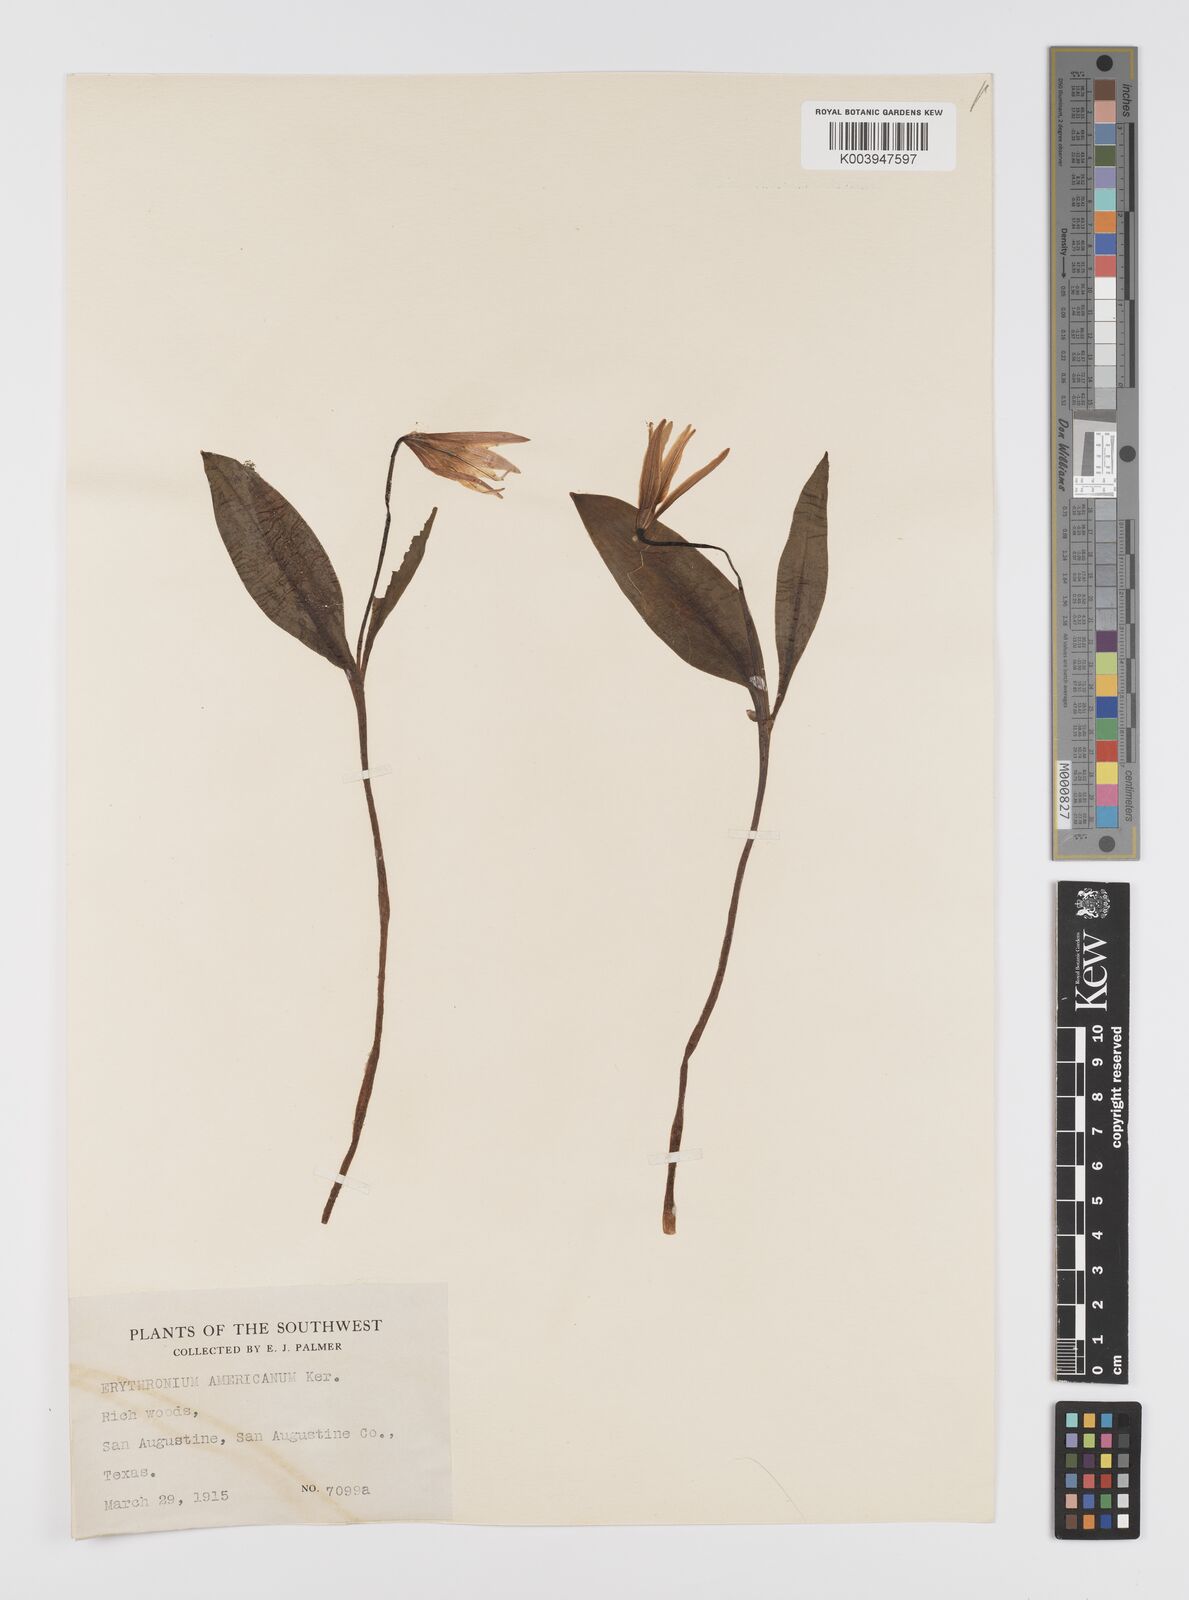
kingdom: Plantae
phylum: Tracheophyta
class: Liliopsida
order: Liliales
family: Liliaceae
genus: Erythronium
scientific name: Erythronium grandiflorum
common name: Avalanche-lily
